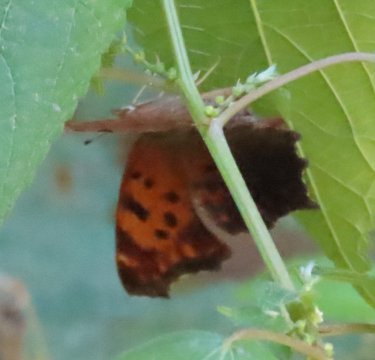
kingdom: Animalia
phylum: Arthropoda
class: Insecta
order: Lepidoptera
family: Nymphalidae
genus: Polygonia
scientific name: Polygonia comma
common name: Eastern Comma
